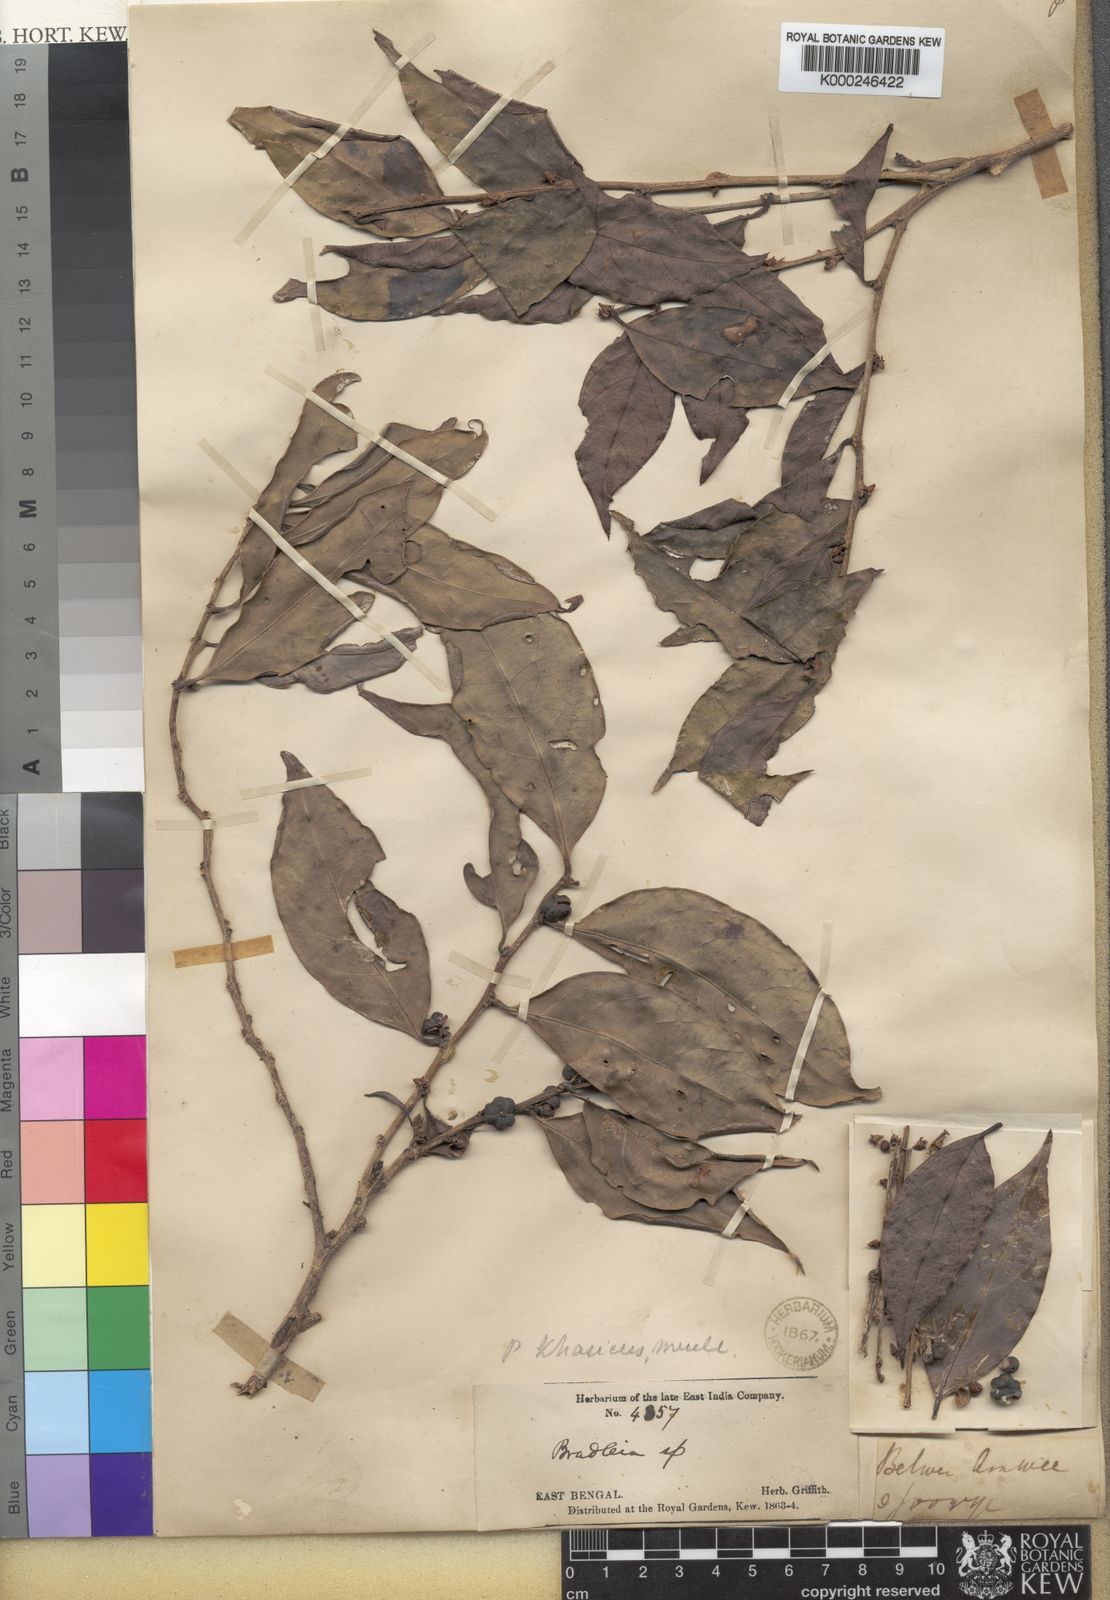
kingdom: Plantae
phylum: Tracheophyta
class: Magnoliopsida
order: Malpighiales
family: Phyllanthaceae
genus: Glochidion
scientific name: Glochidion
